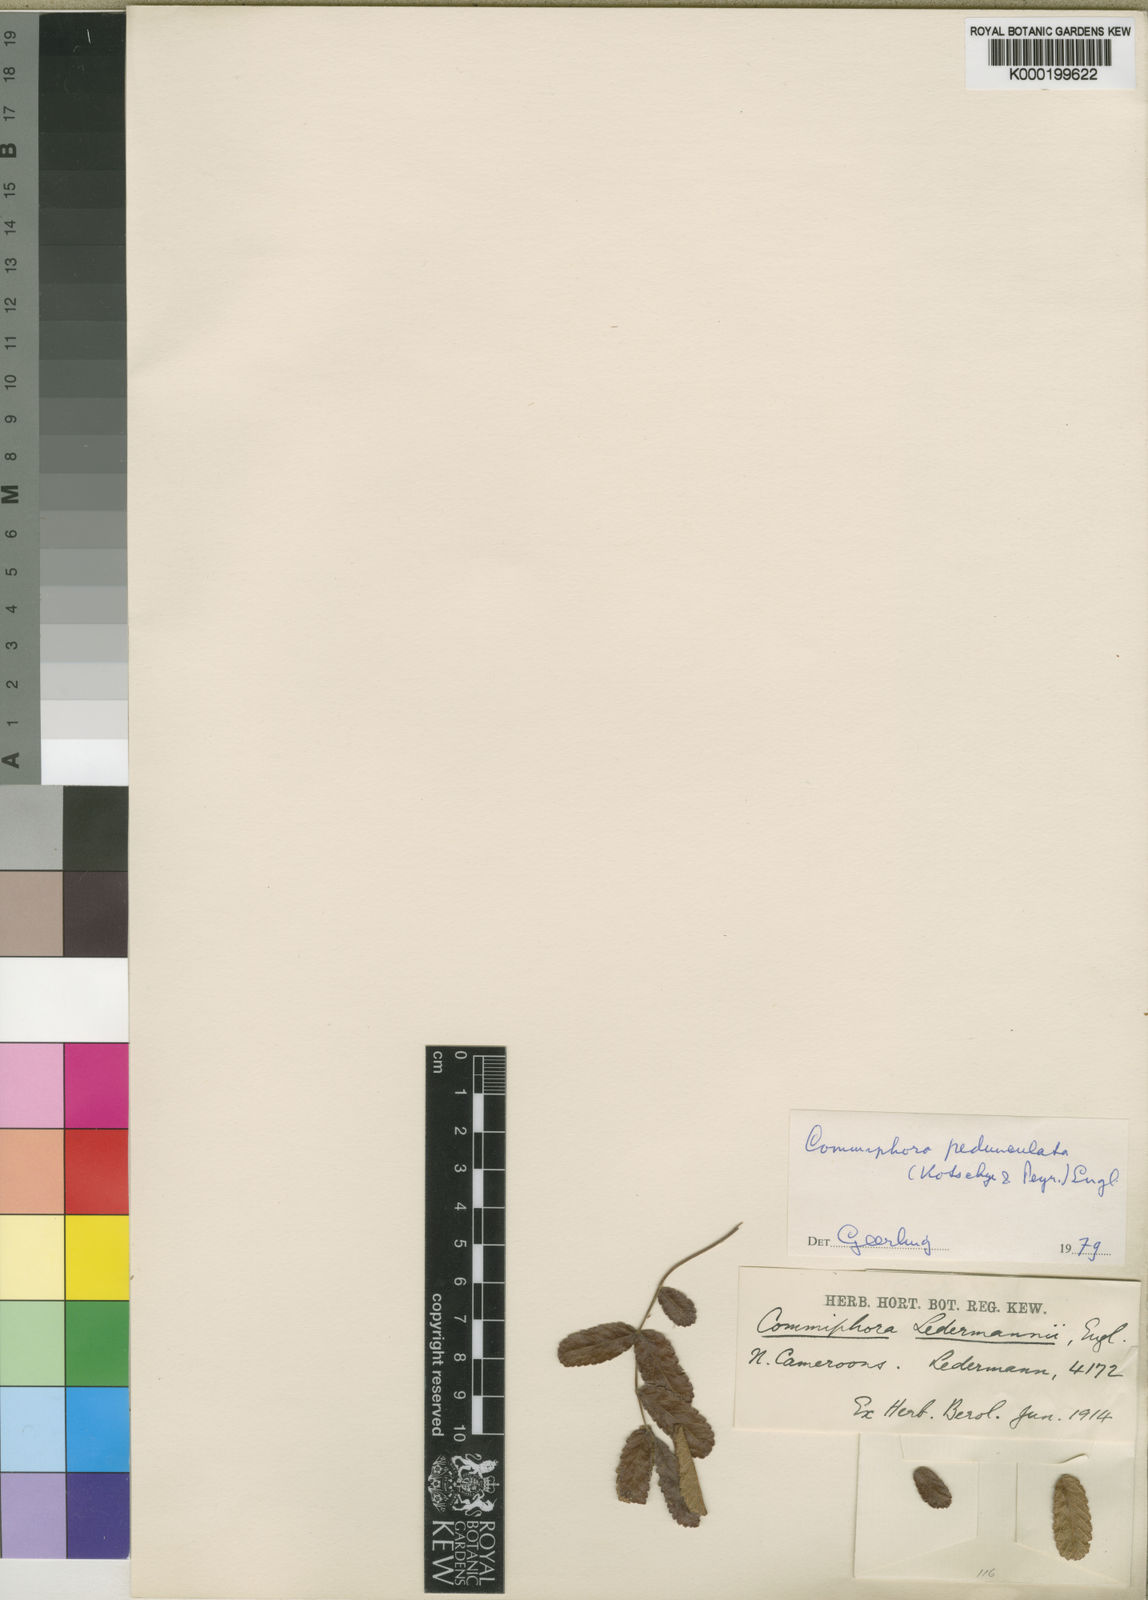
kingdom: Plantae
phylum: Tracheophyta
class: Magnoliopsida
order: Sapindales
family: Burseraceae
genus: Commiphora
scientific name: Commiphora pedunculata
